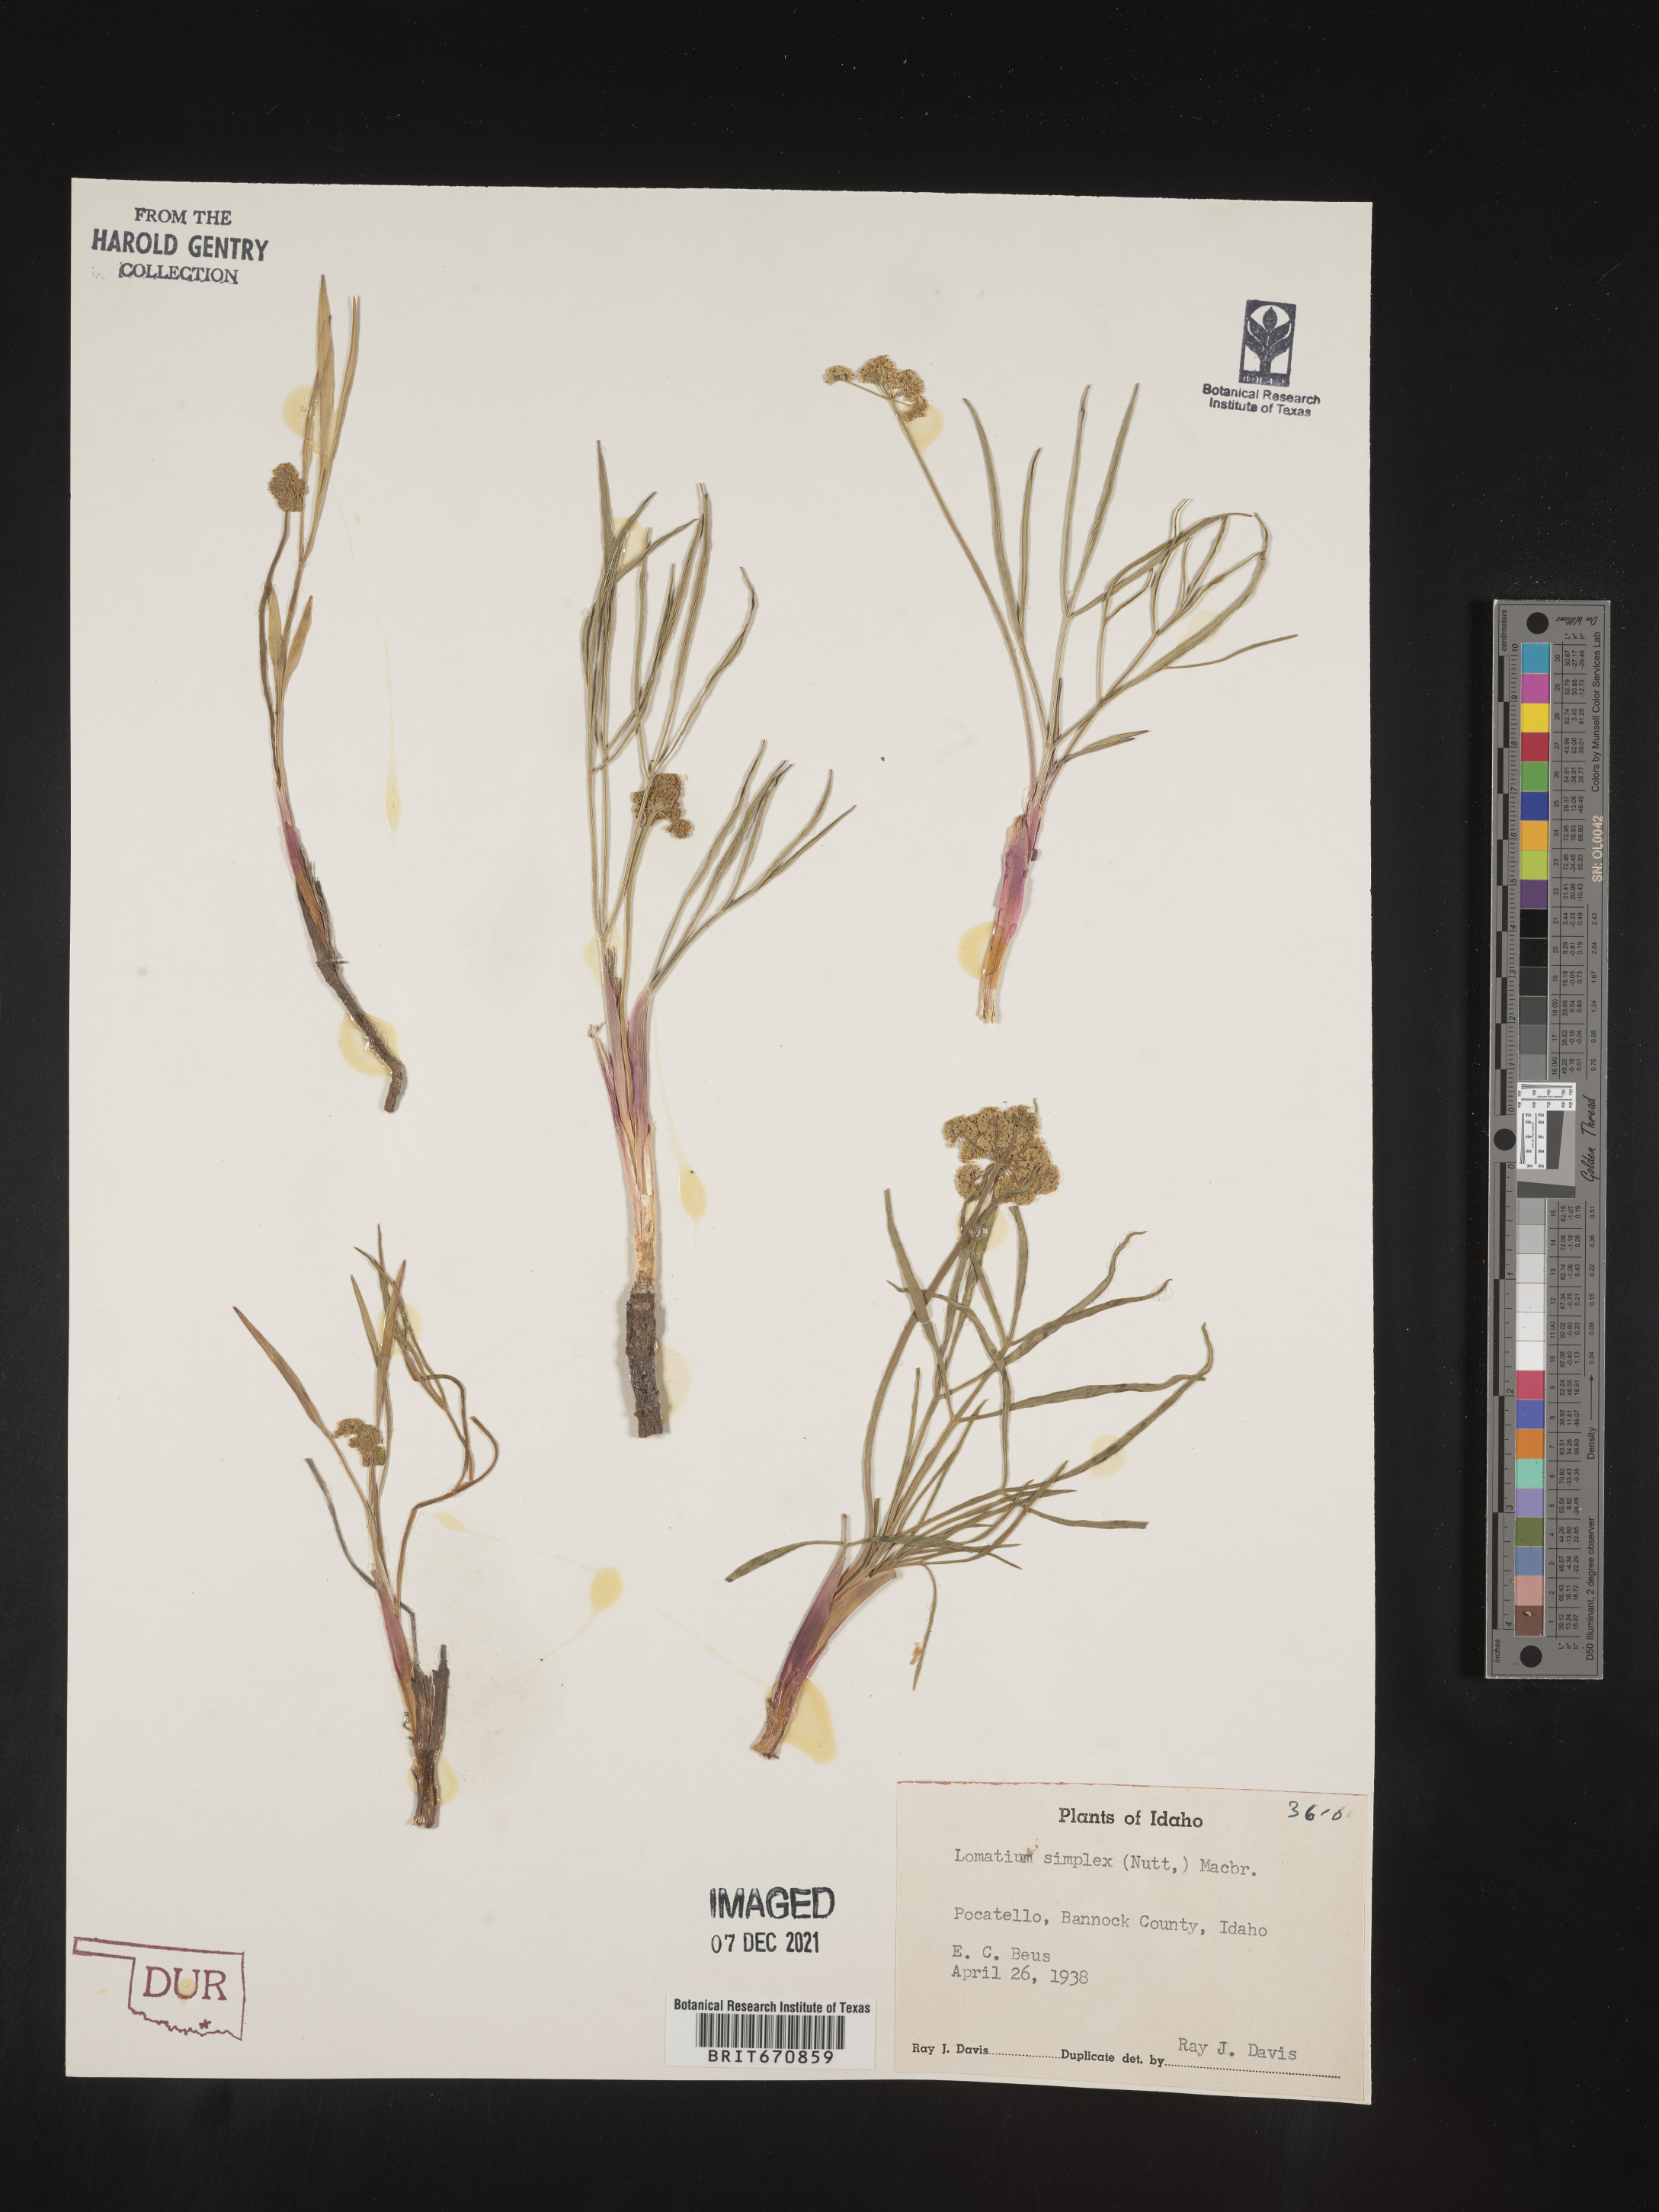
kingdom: Plantae
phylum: Tracheophyta
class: Magnoliopsida
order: Apiales
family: Apiaceae
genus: Lomatium
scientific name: Lomatium simplex
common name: Great basin biscuitroot
